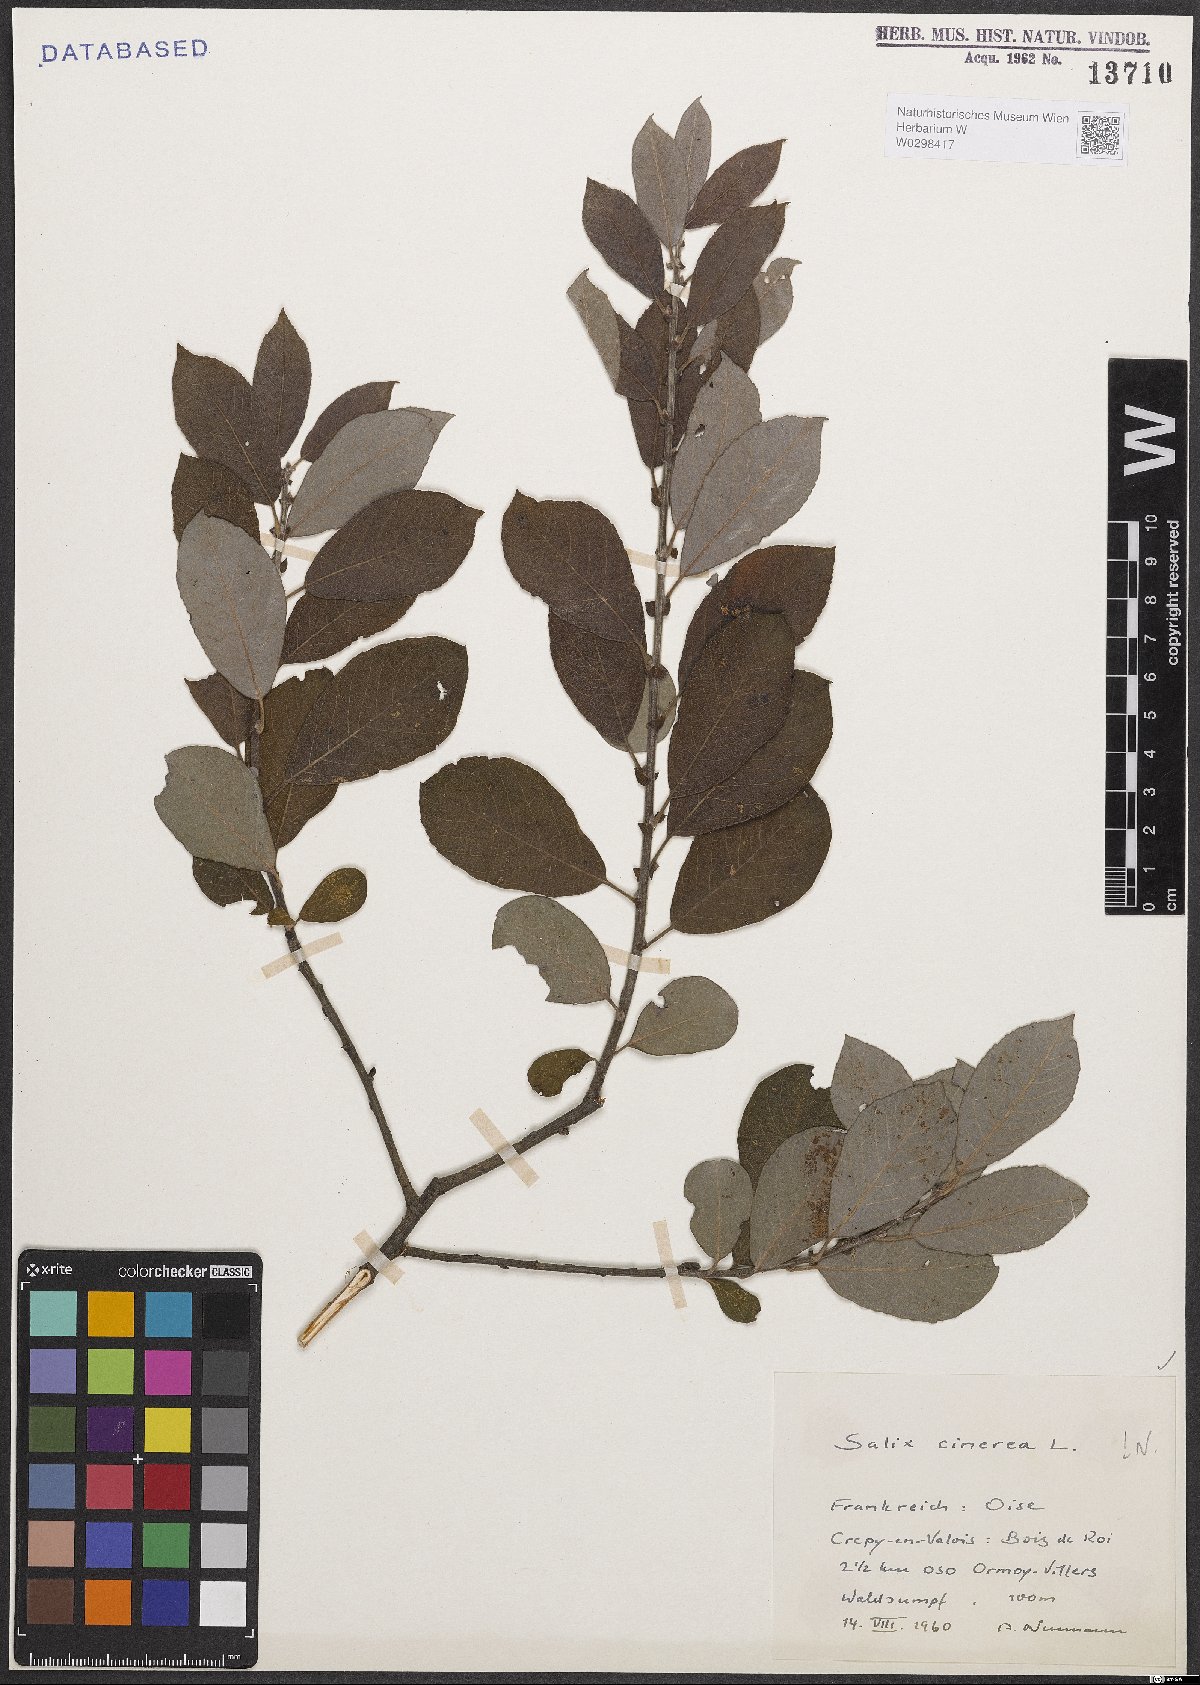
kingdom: Plantae
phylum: Tracheophyta
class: Magnoliopsida
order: Malpighiales
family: Salicaceae
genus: Salix
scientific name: Salix cinerea
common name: Common sallow
